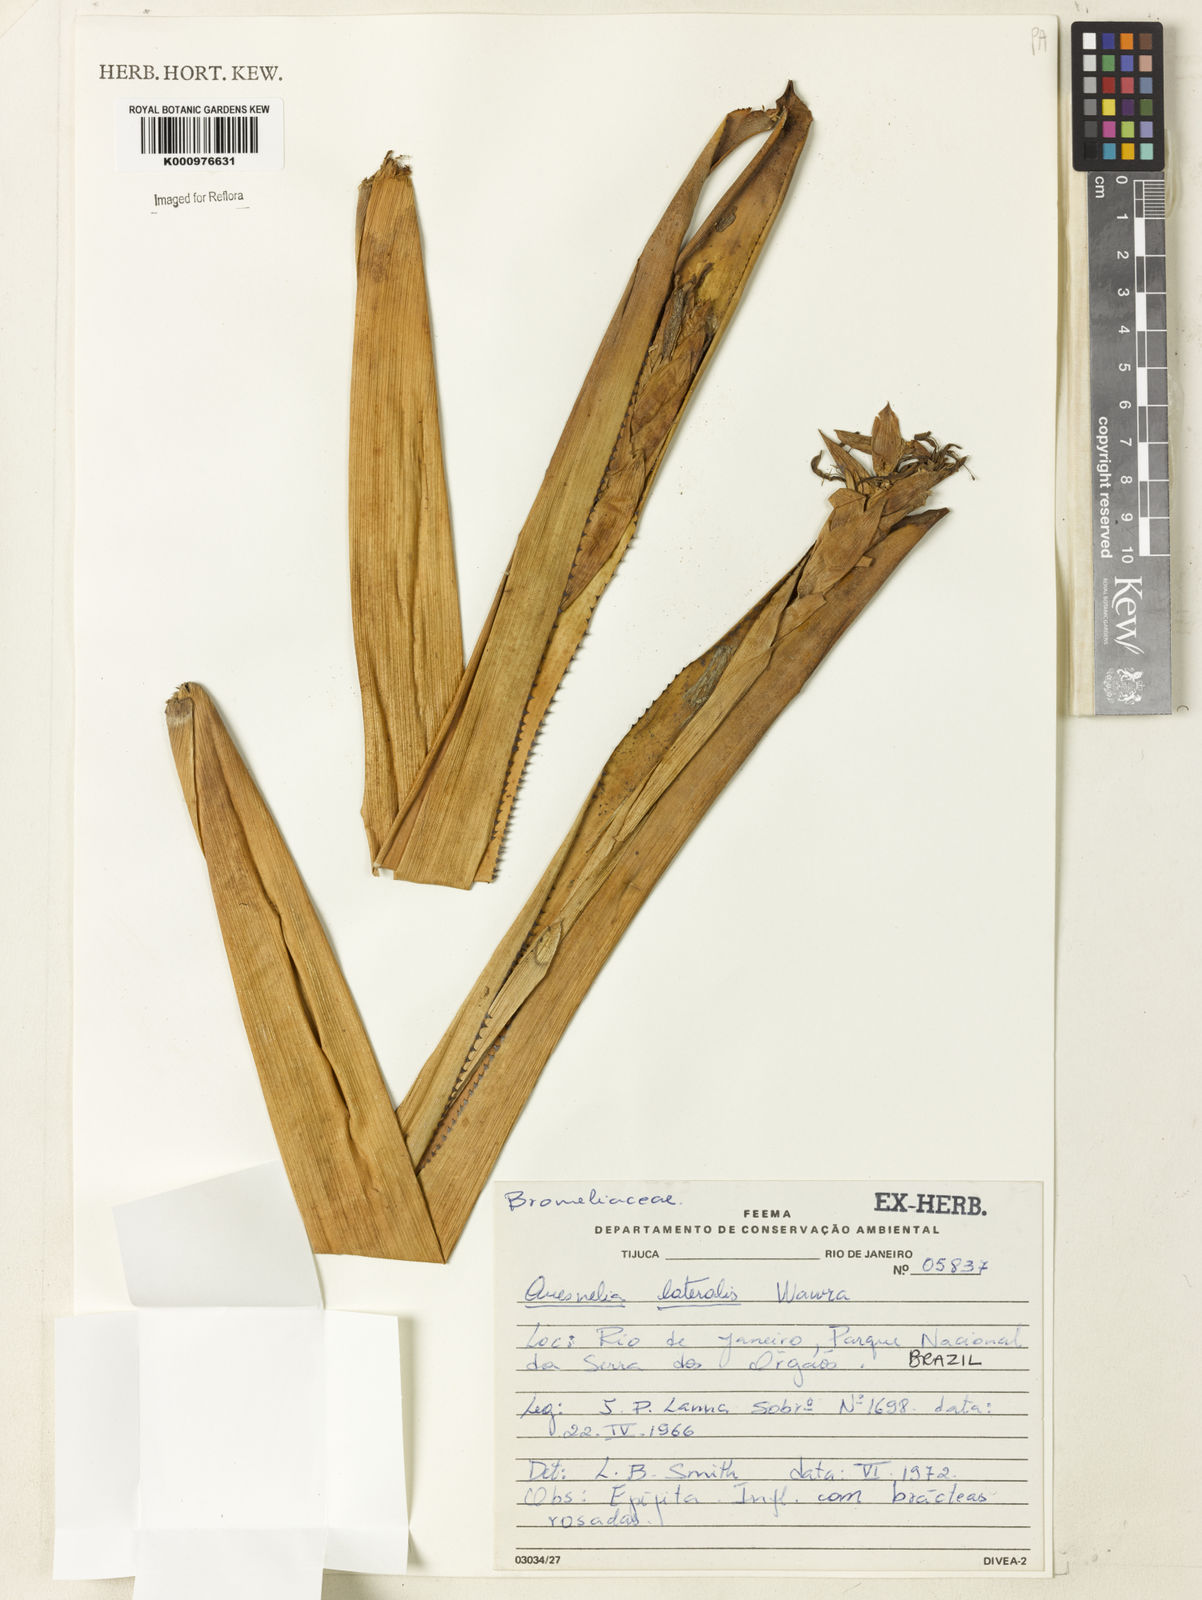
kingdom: Plantae
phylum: Tracheophyta
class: Liliopsida
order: Poales
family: Bromeliaceae
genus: Quesnelia
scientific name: Quesnelia lateralis
